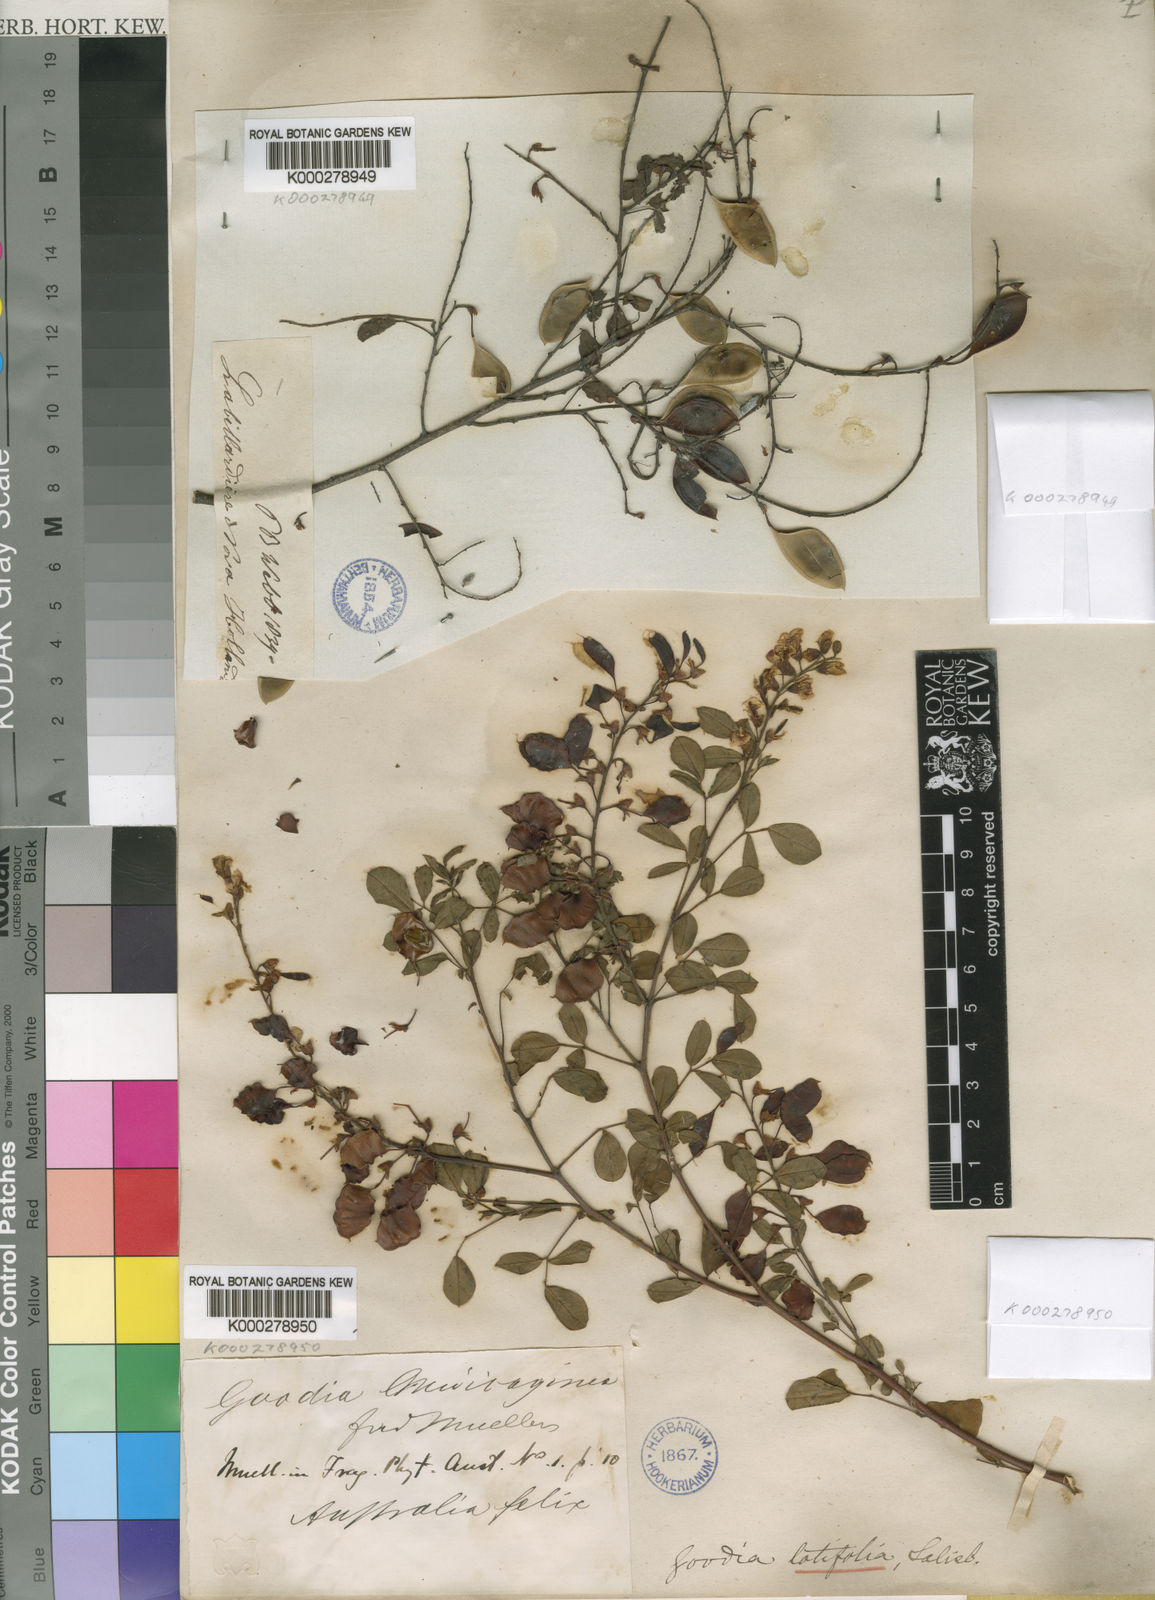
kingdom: Plantae
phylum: Tracheophyta
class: Magnoliopsida
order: Fabales
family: Fabaceae
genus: Goodia
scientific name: Goodia lotifolia
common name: Cloverleaf-poison
